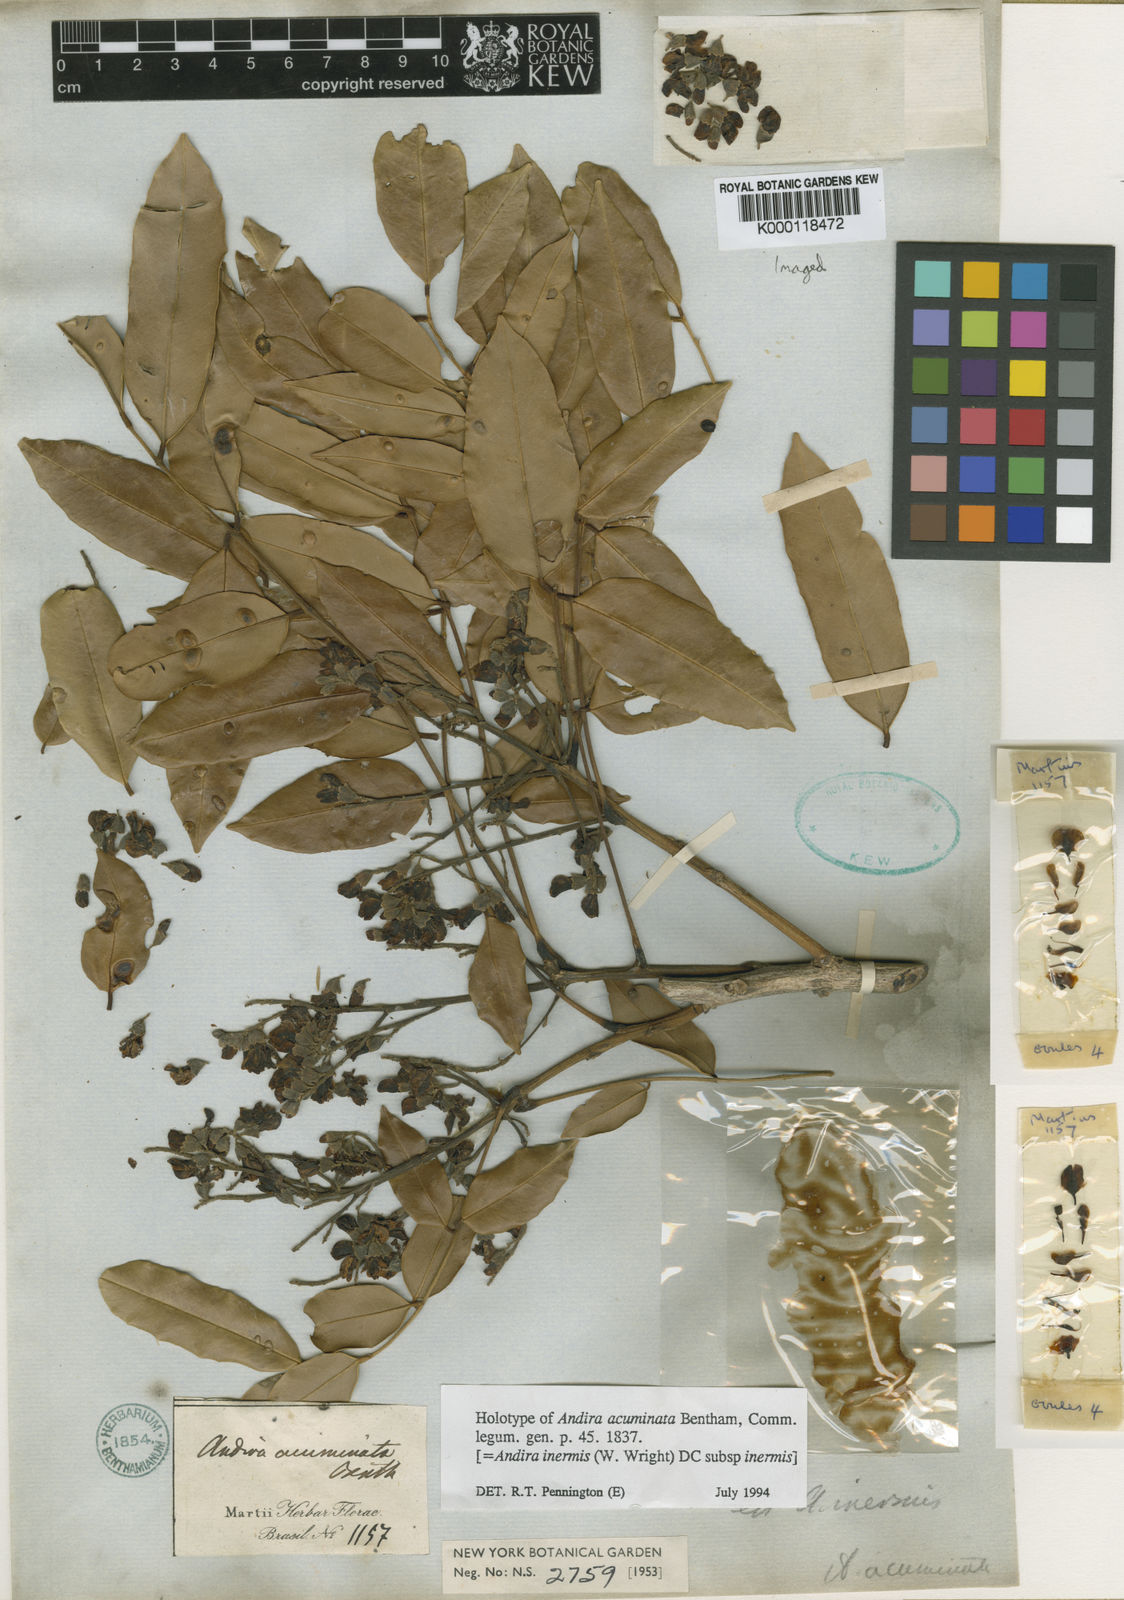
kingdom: Plantae
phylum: Tracheophyta
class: Magnoliopsida
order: Fabales
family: Fabaceae
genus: Andira
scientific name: Andira inermis
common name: Angelin
